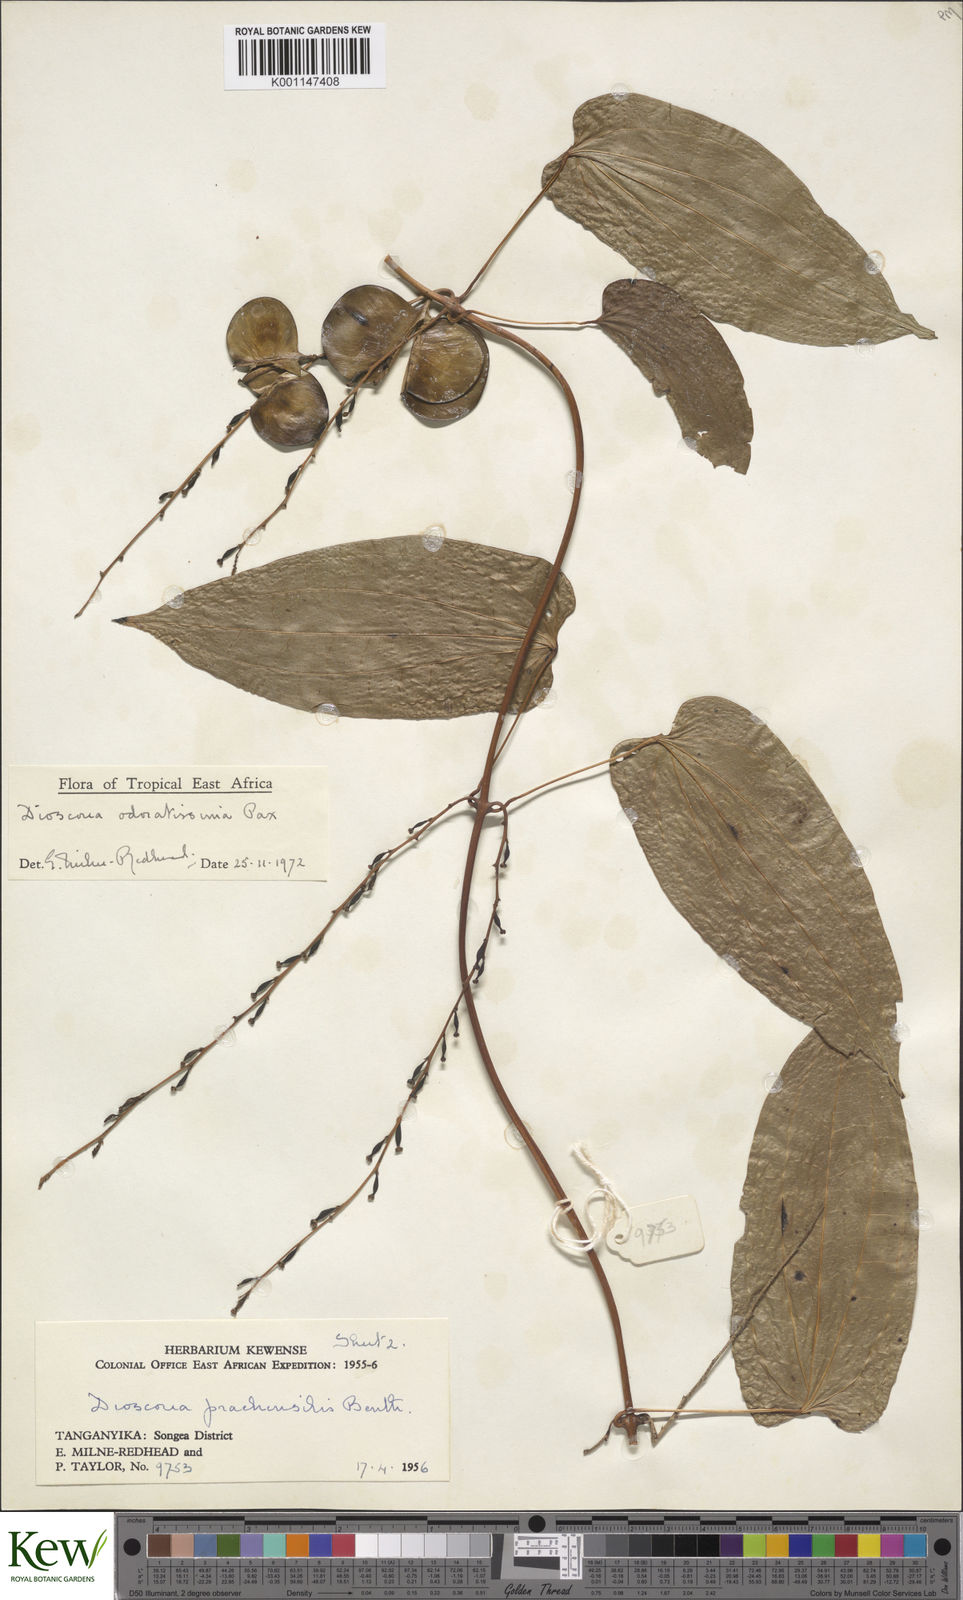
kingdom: Plantae
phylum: Tracheophyta
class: Liliopsida
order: Dioscoreales
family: Dioscoreaceae
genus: Dioscorea
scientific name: Dioscorea praehensilis
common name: Bush yam
